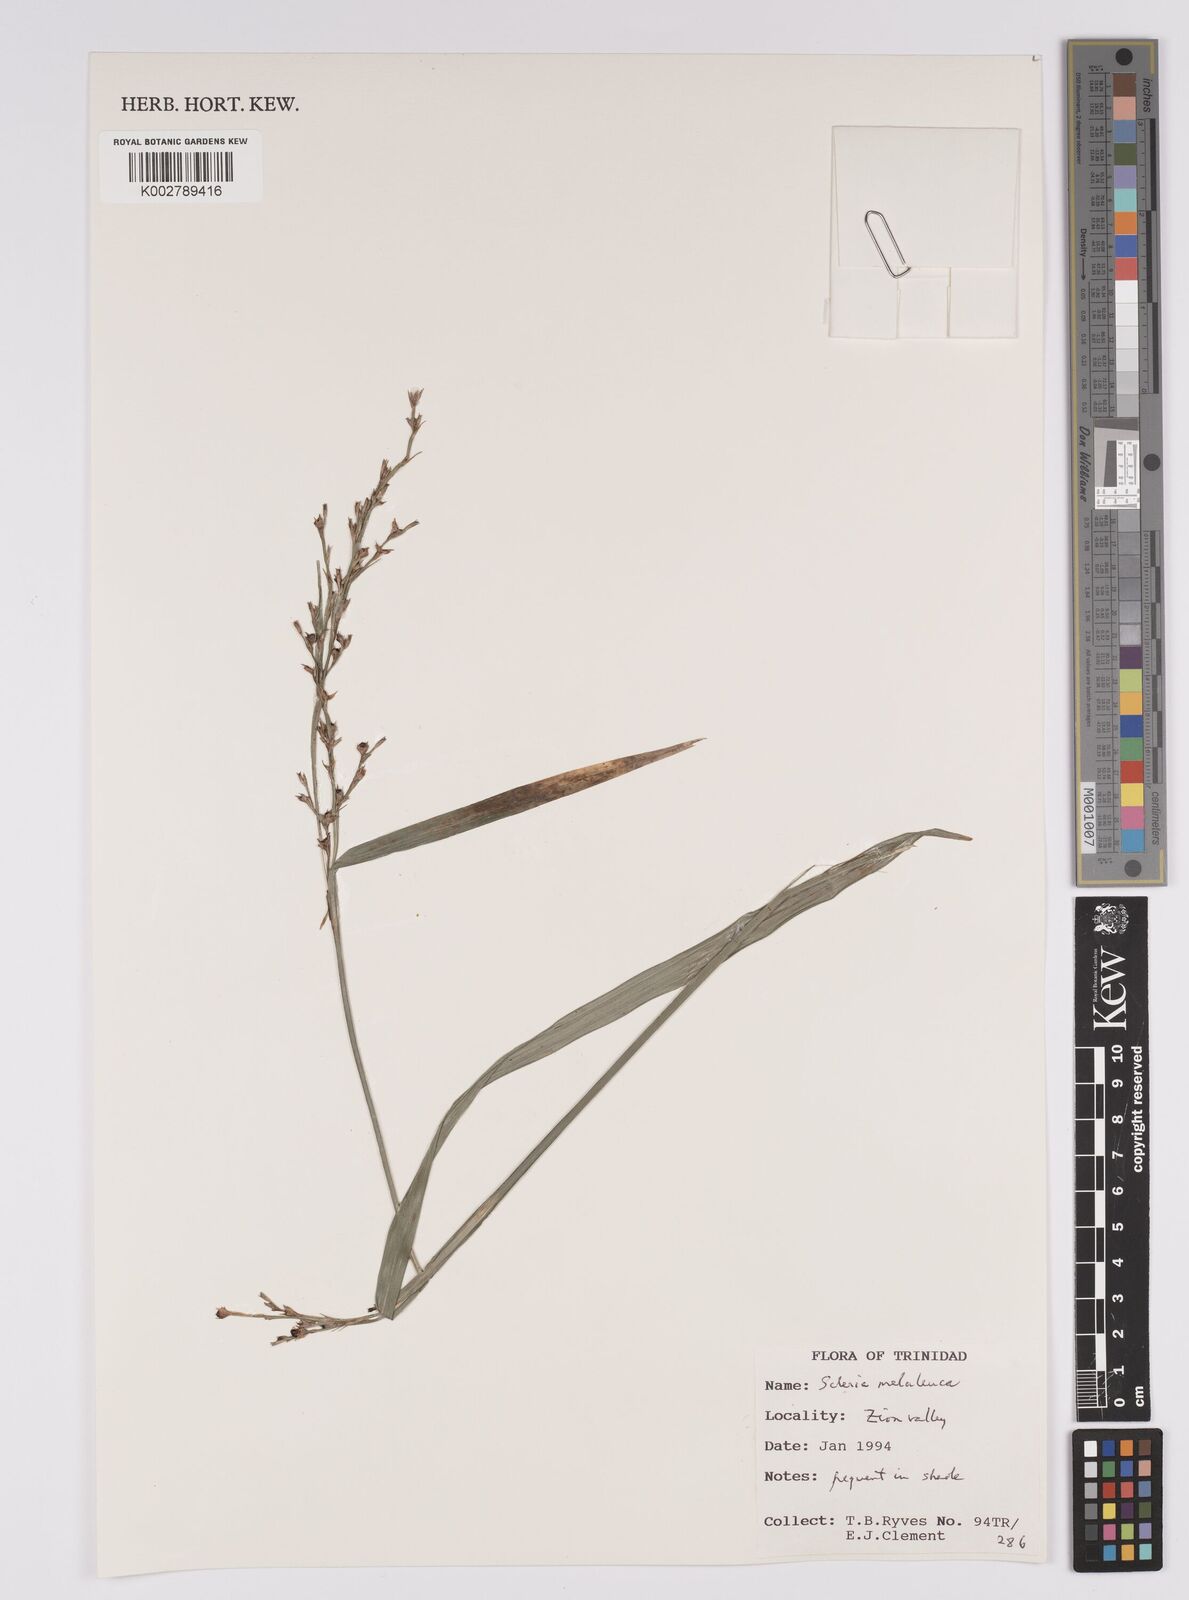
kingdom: Plantae
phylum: Tracheophyta
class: Liliopsida
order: Poales
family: Cyperaceae
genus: Scleria
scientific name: Scleria gaertneri
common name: Cortadera blanca
